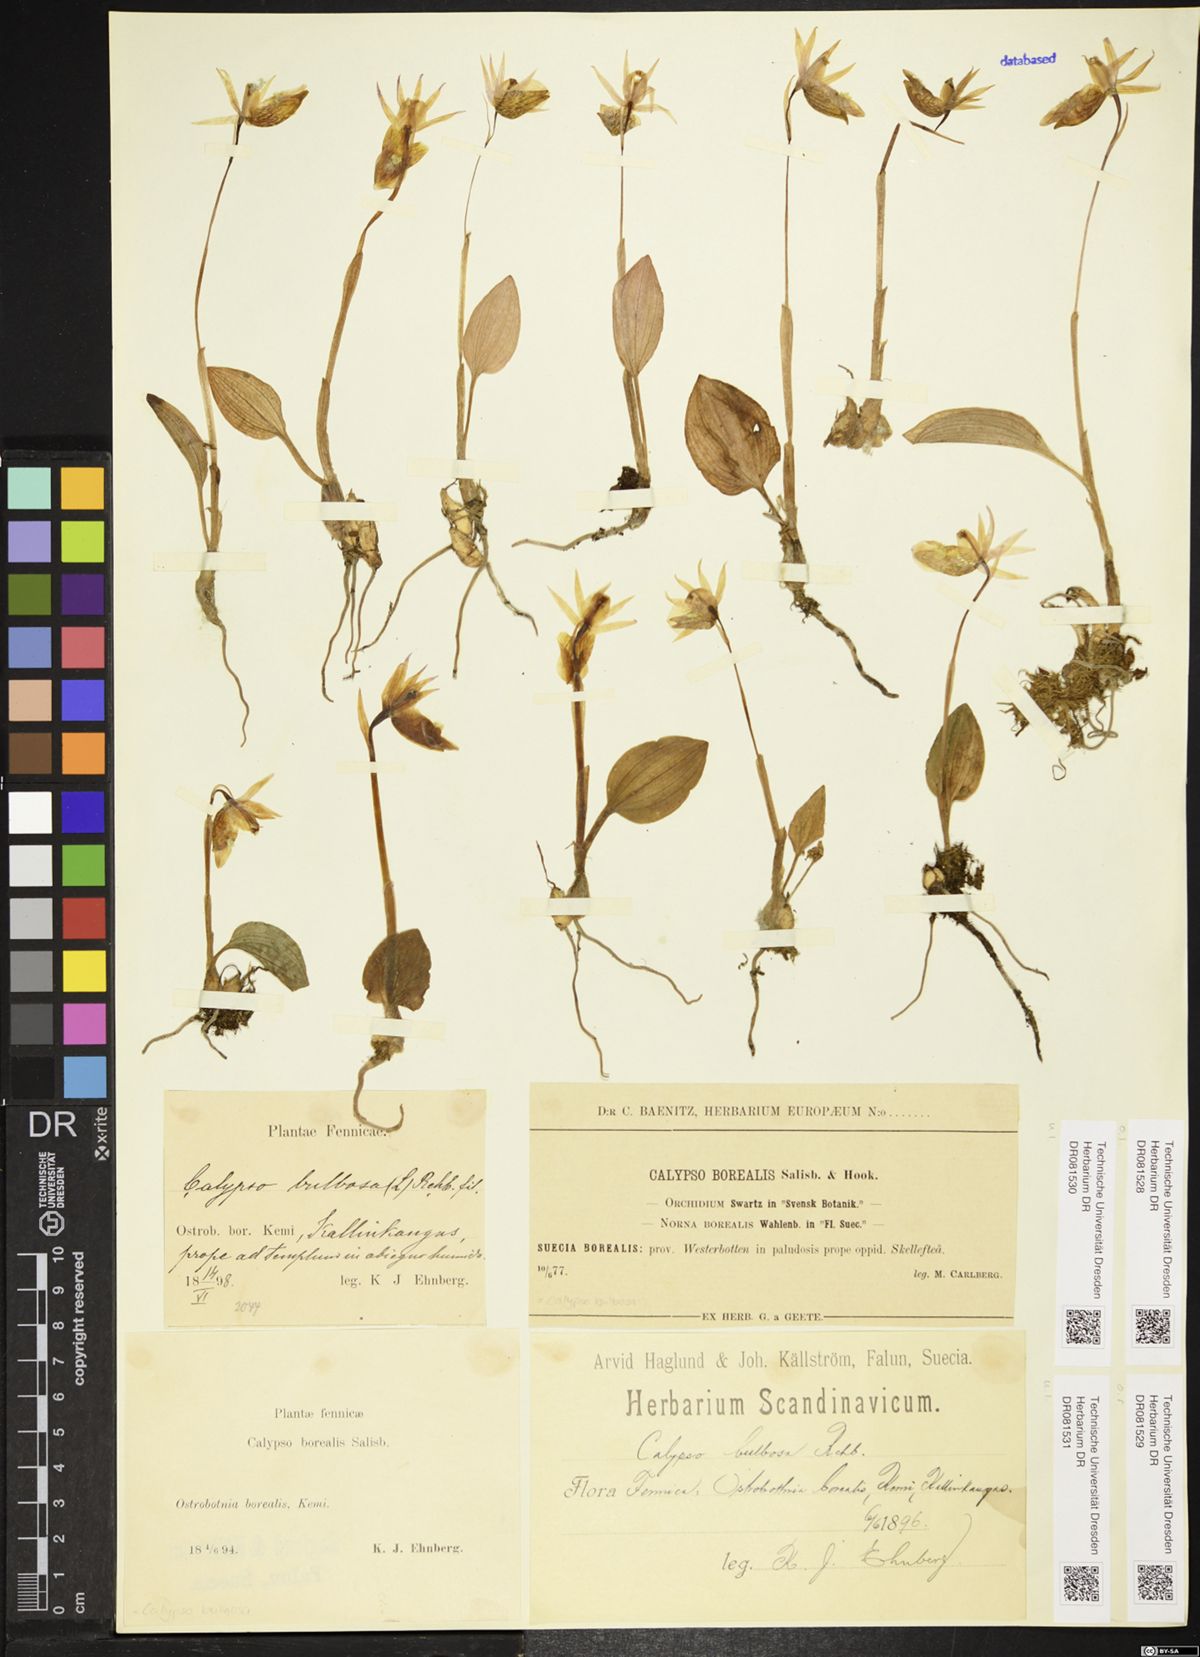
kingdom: Plantae
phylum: Tracheophyta
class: Liliopsida
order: Asparagales
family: Orchidaceae
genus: Calypso
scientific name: Calypso bulbosa
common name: Calypso
